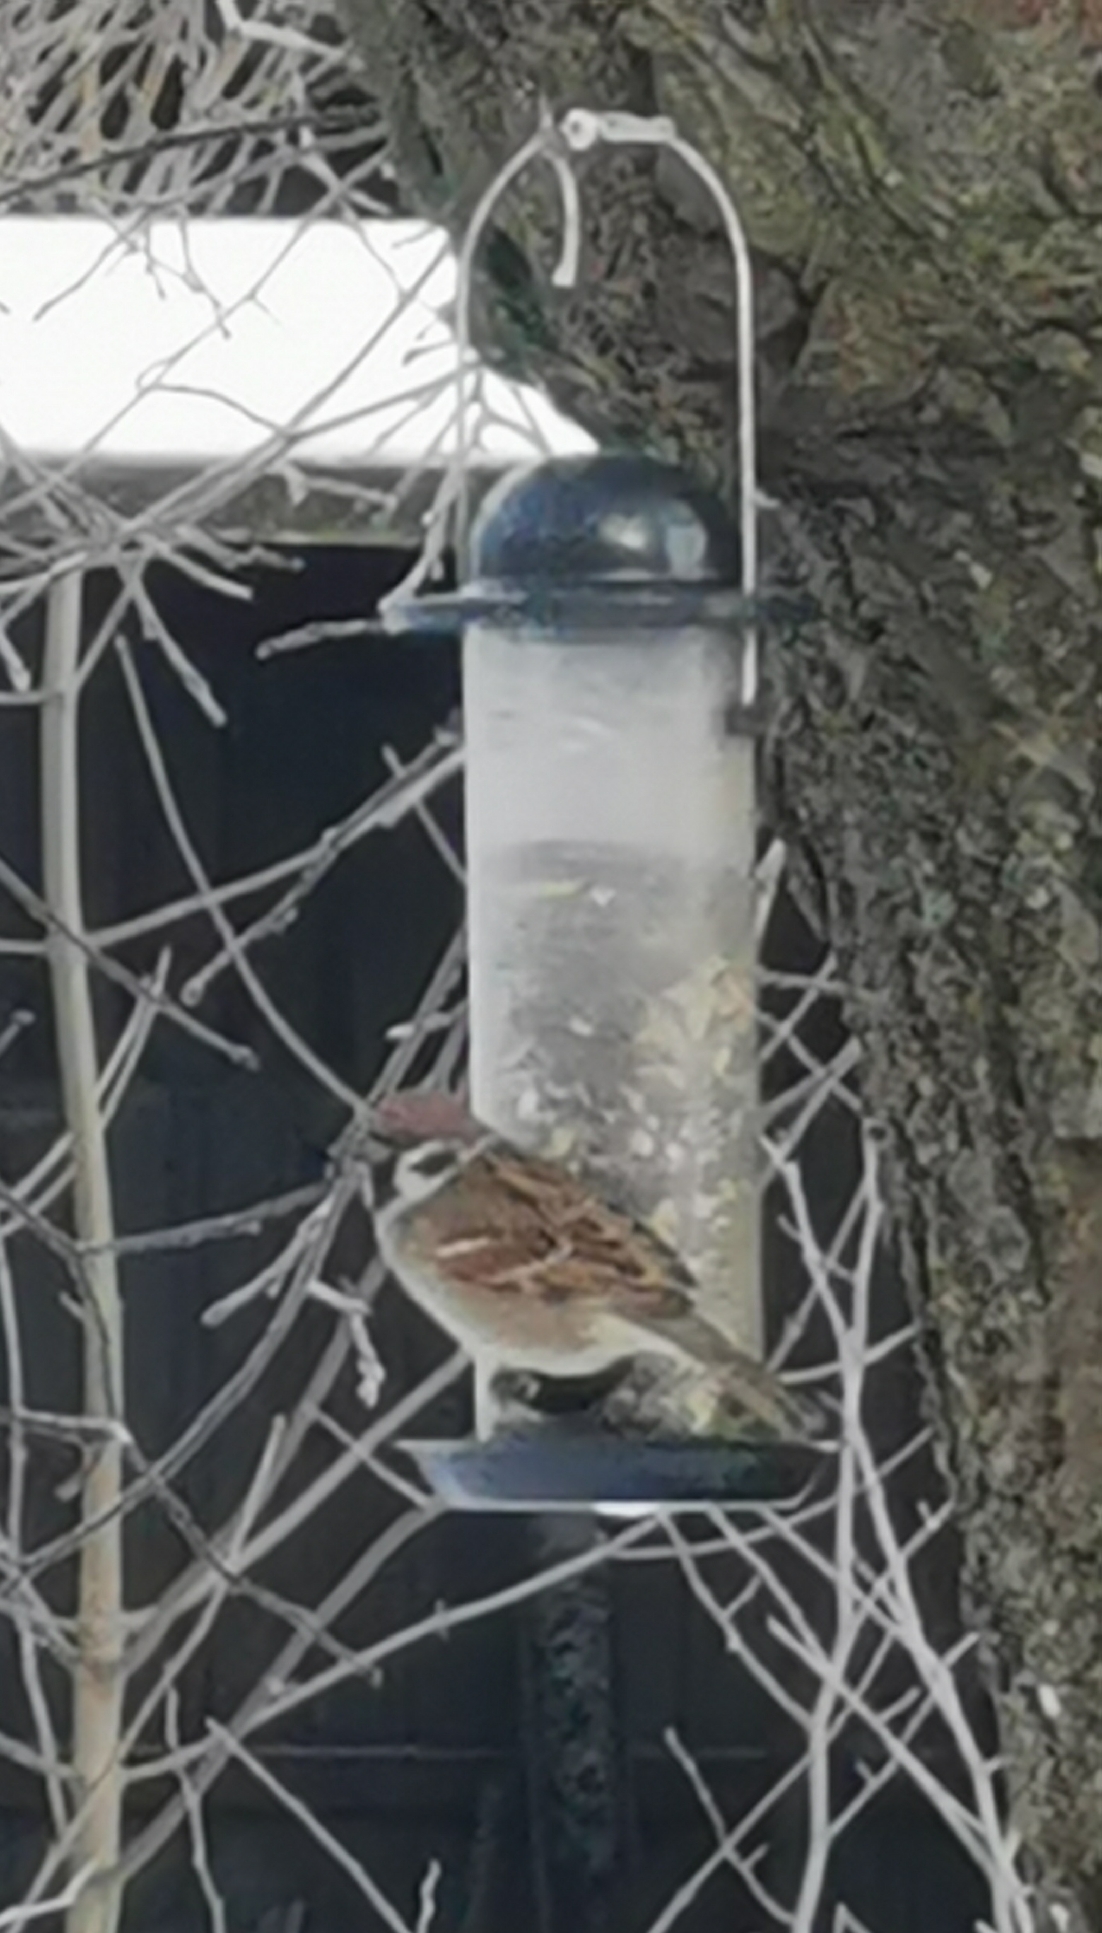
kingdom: Animalia
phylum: Chordata
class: Aves
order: Passeriformes
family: Passeridae
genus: Passer
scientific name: Passer montanus
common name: Skovspurv
